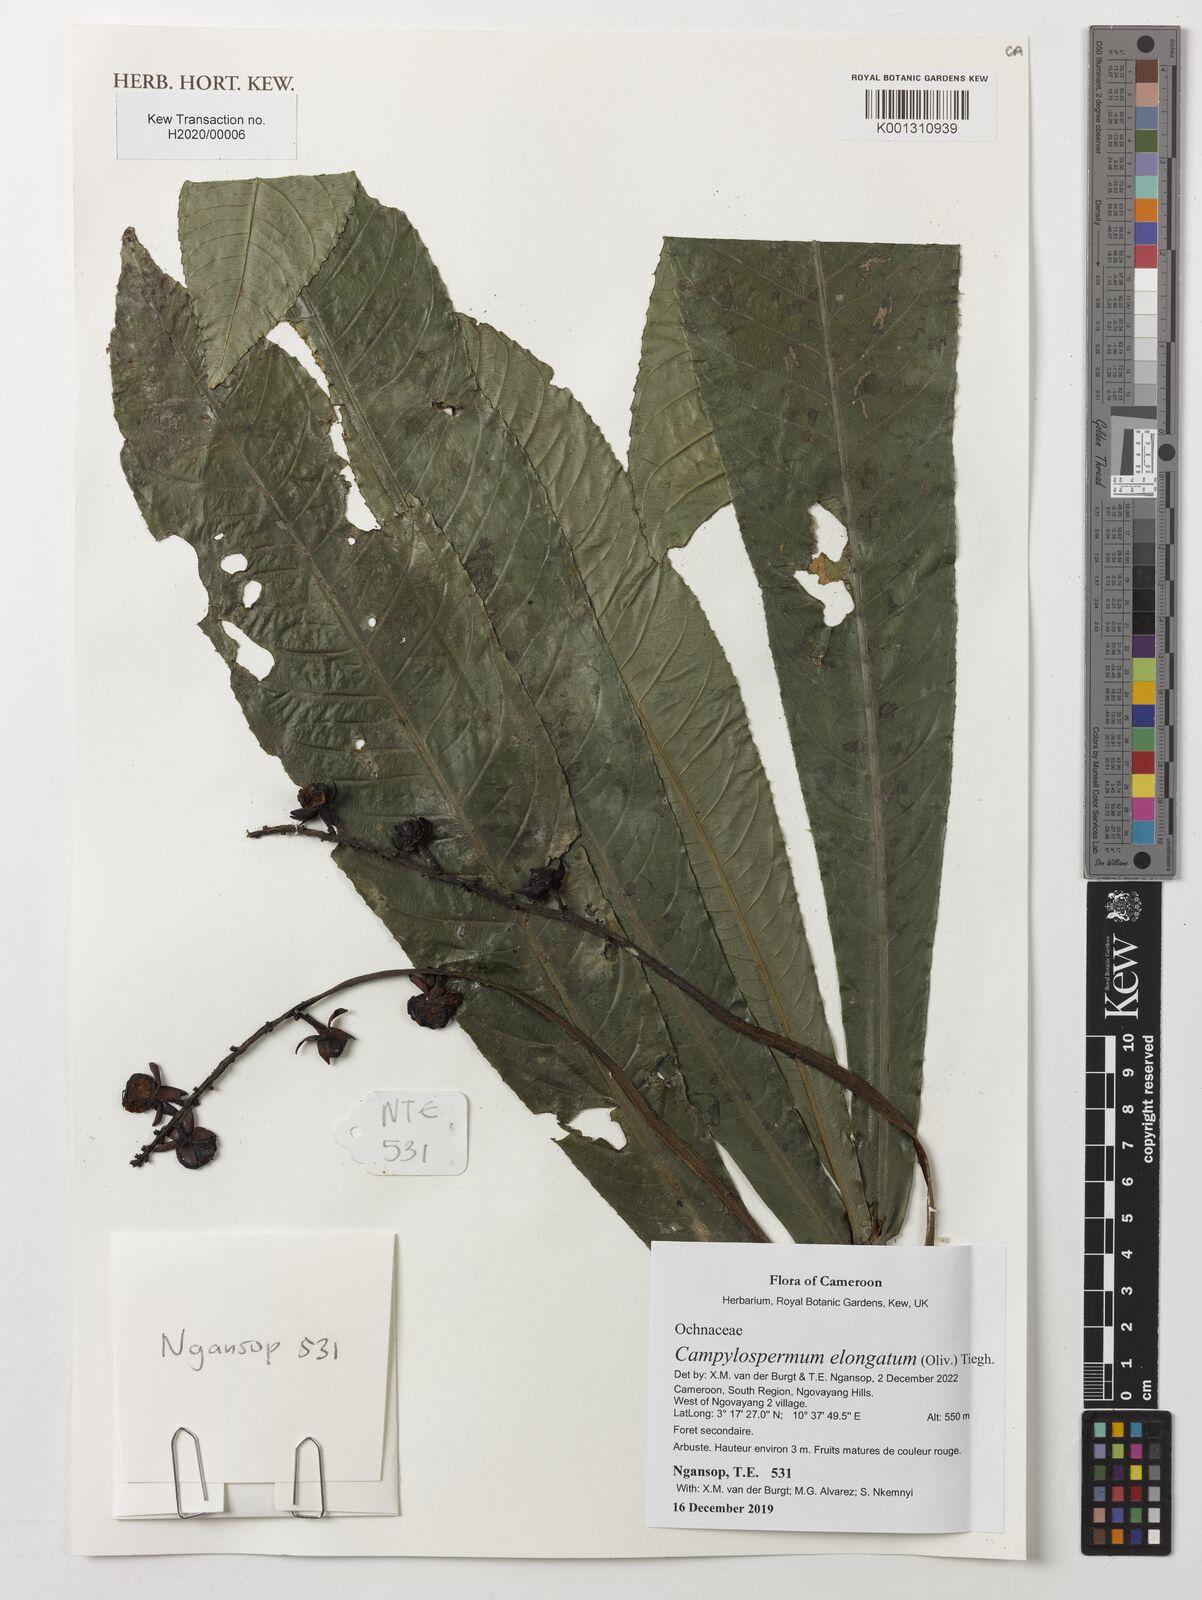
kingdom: Plantae
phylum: Tracheophyta
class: Magnoliopsida
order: Malpighiales
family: Ochnaceae
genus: Gomphia
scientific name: Gomphia elongata
